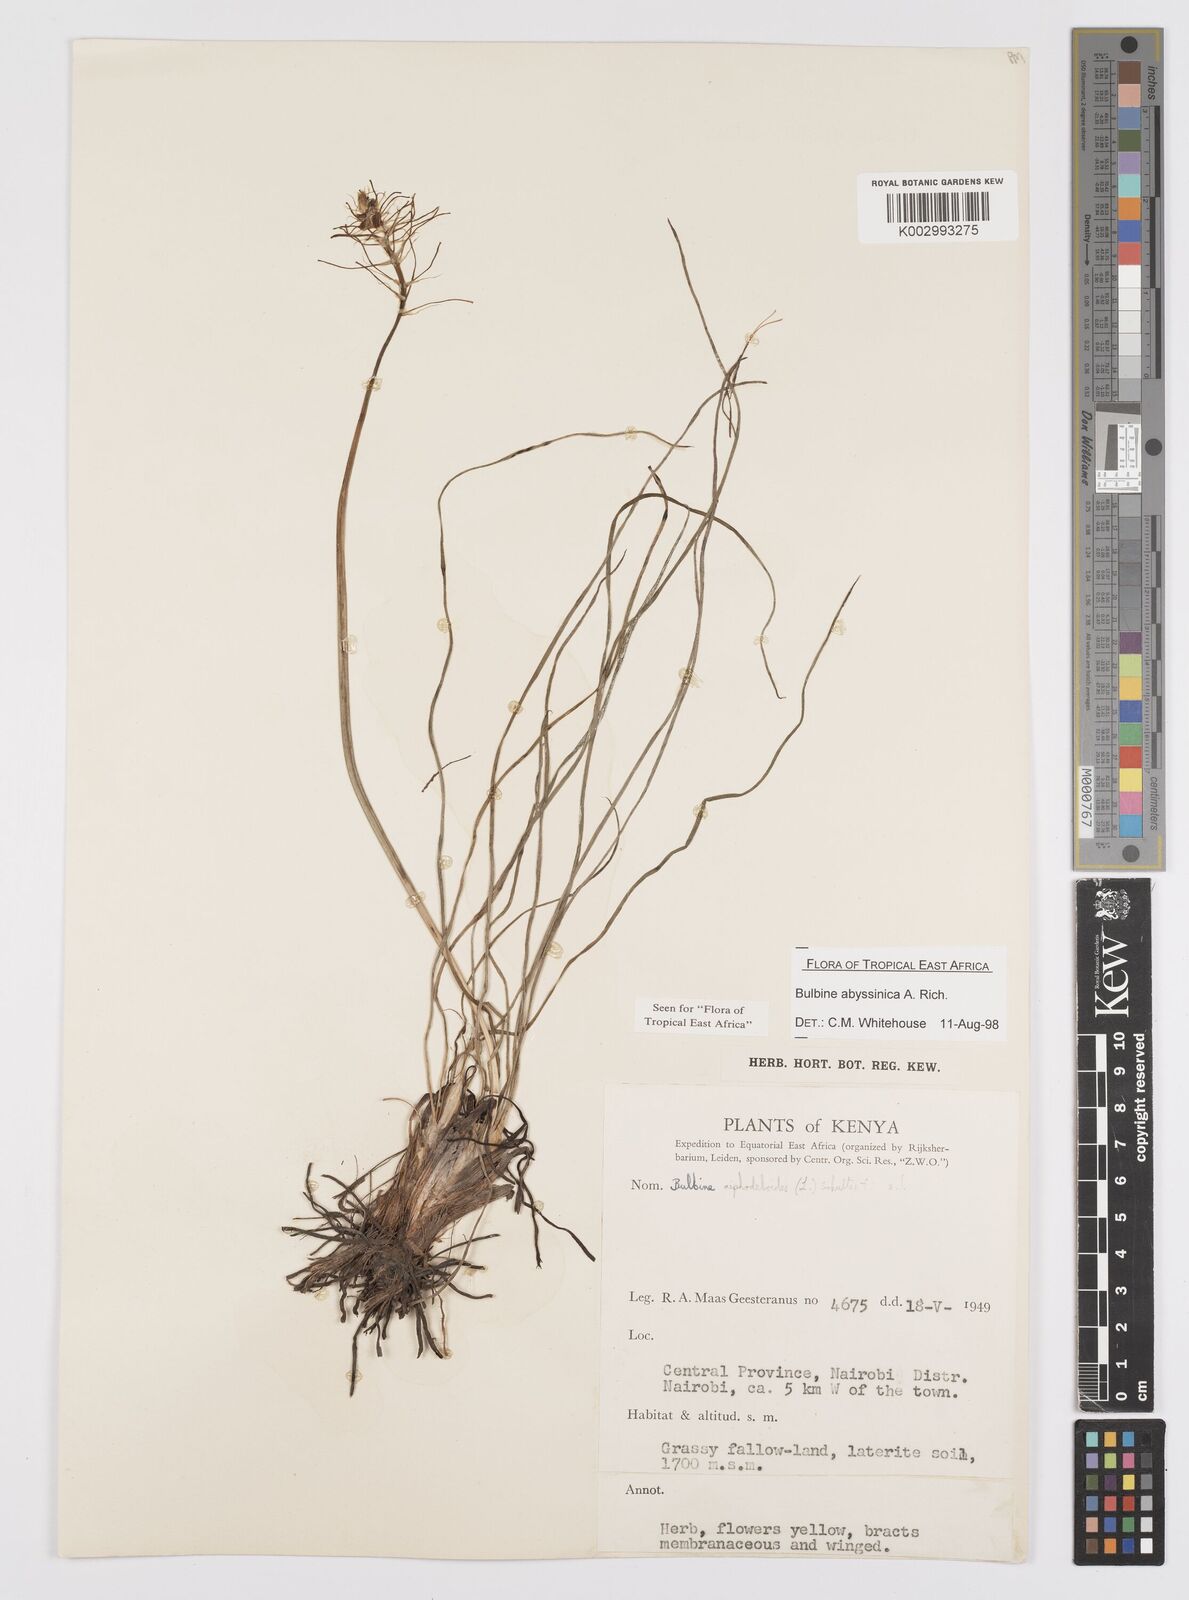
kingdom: Plantae
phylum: Tracheophyta
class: Liliopsida
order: Asparagales
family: Asphodelaceae
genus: Bulbine
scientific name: Bulbine abyssinica
